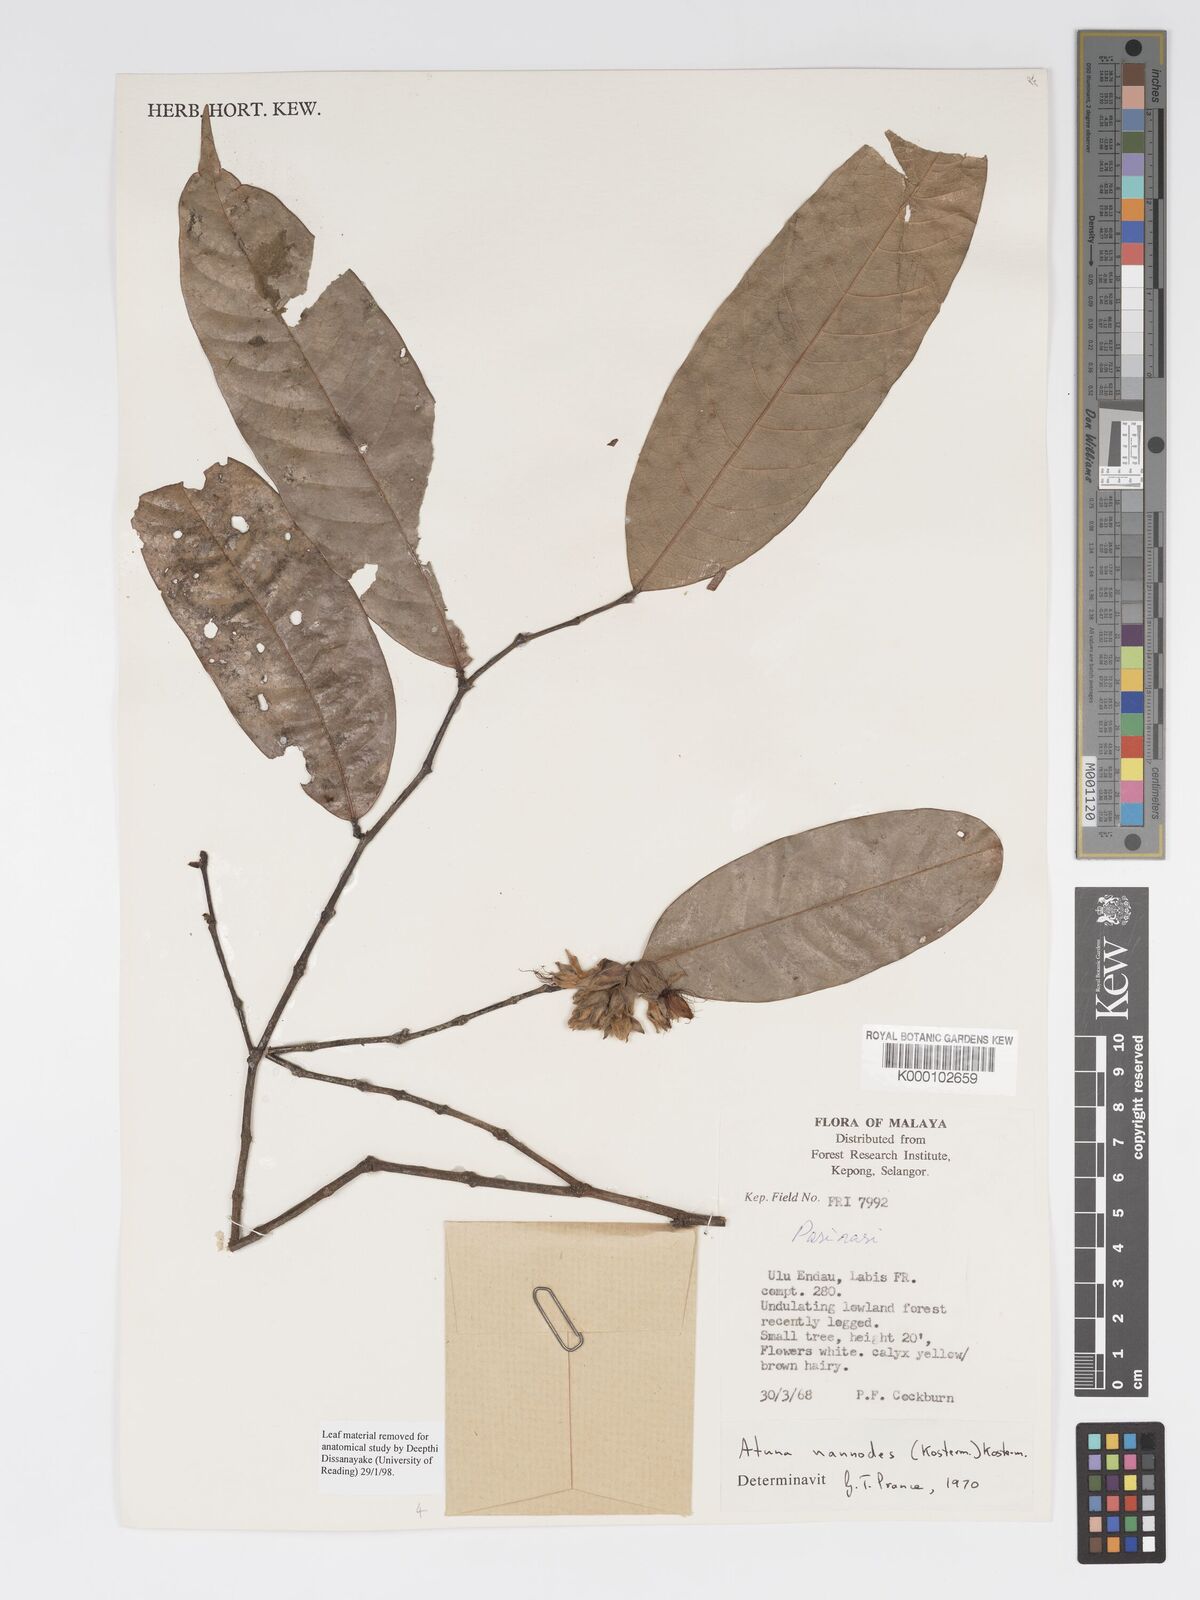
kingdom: Plantae
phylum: Tracheophyta
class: Magnoliopsida
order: Malpighiales
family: Chrysobalanaceae
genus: Atuna
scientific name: Atuna nannodes
